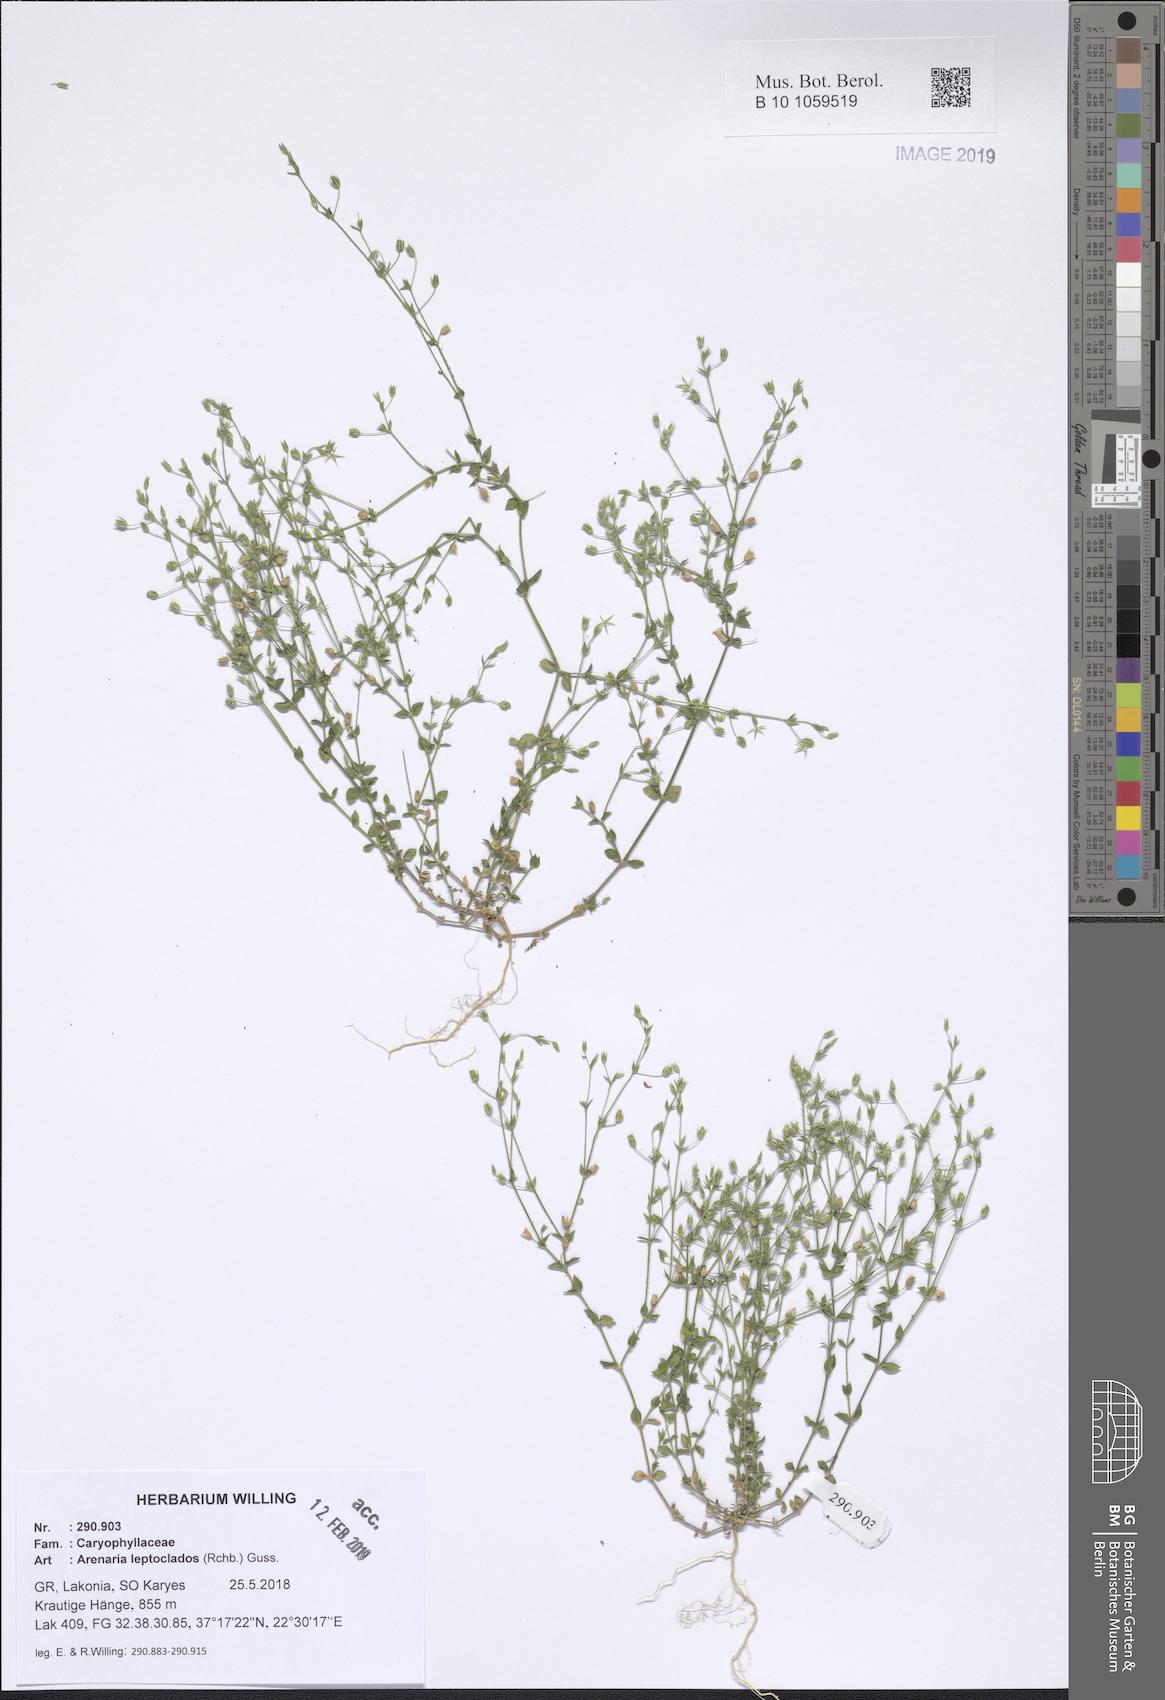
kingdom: Plantae
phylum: Tracheophyta
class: Magnoliopsida
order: Caryophyllales
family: Caryophyllaceae
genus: Arenaria
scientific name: Arenaria leptoclados
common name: Thyme-leaved sandwort
